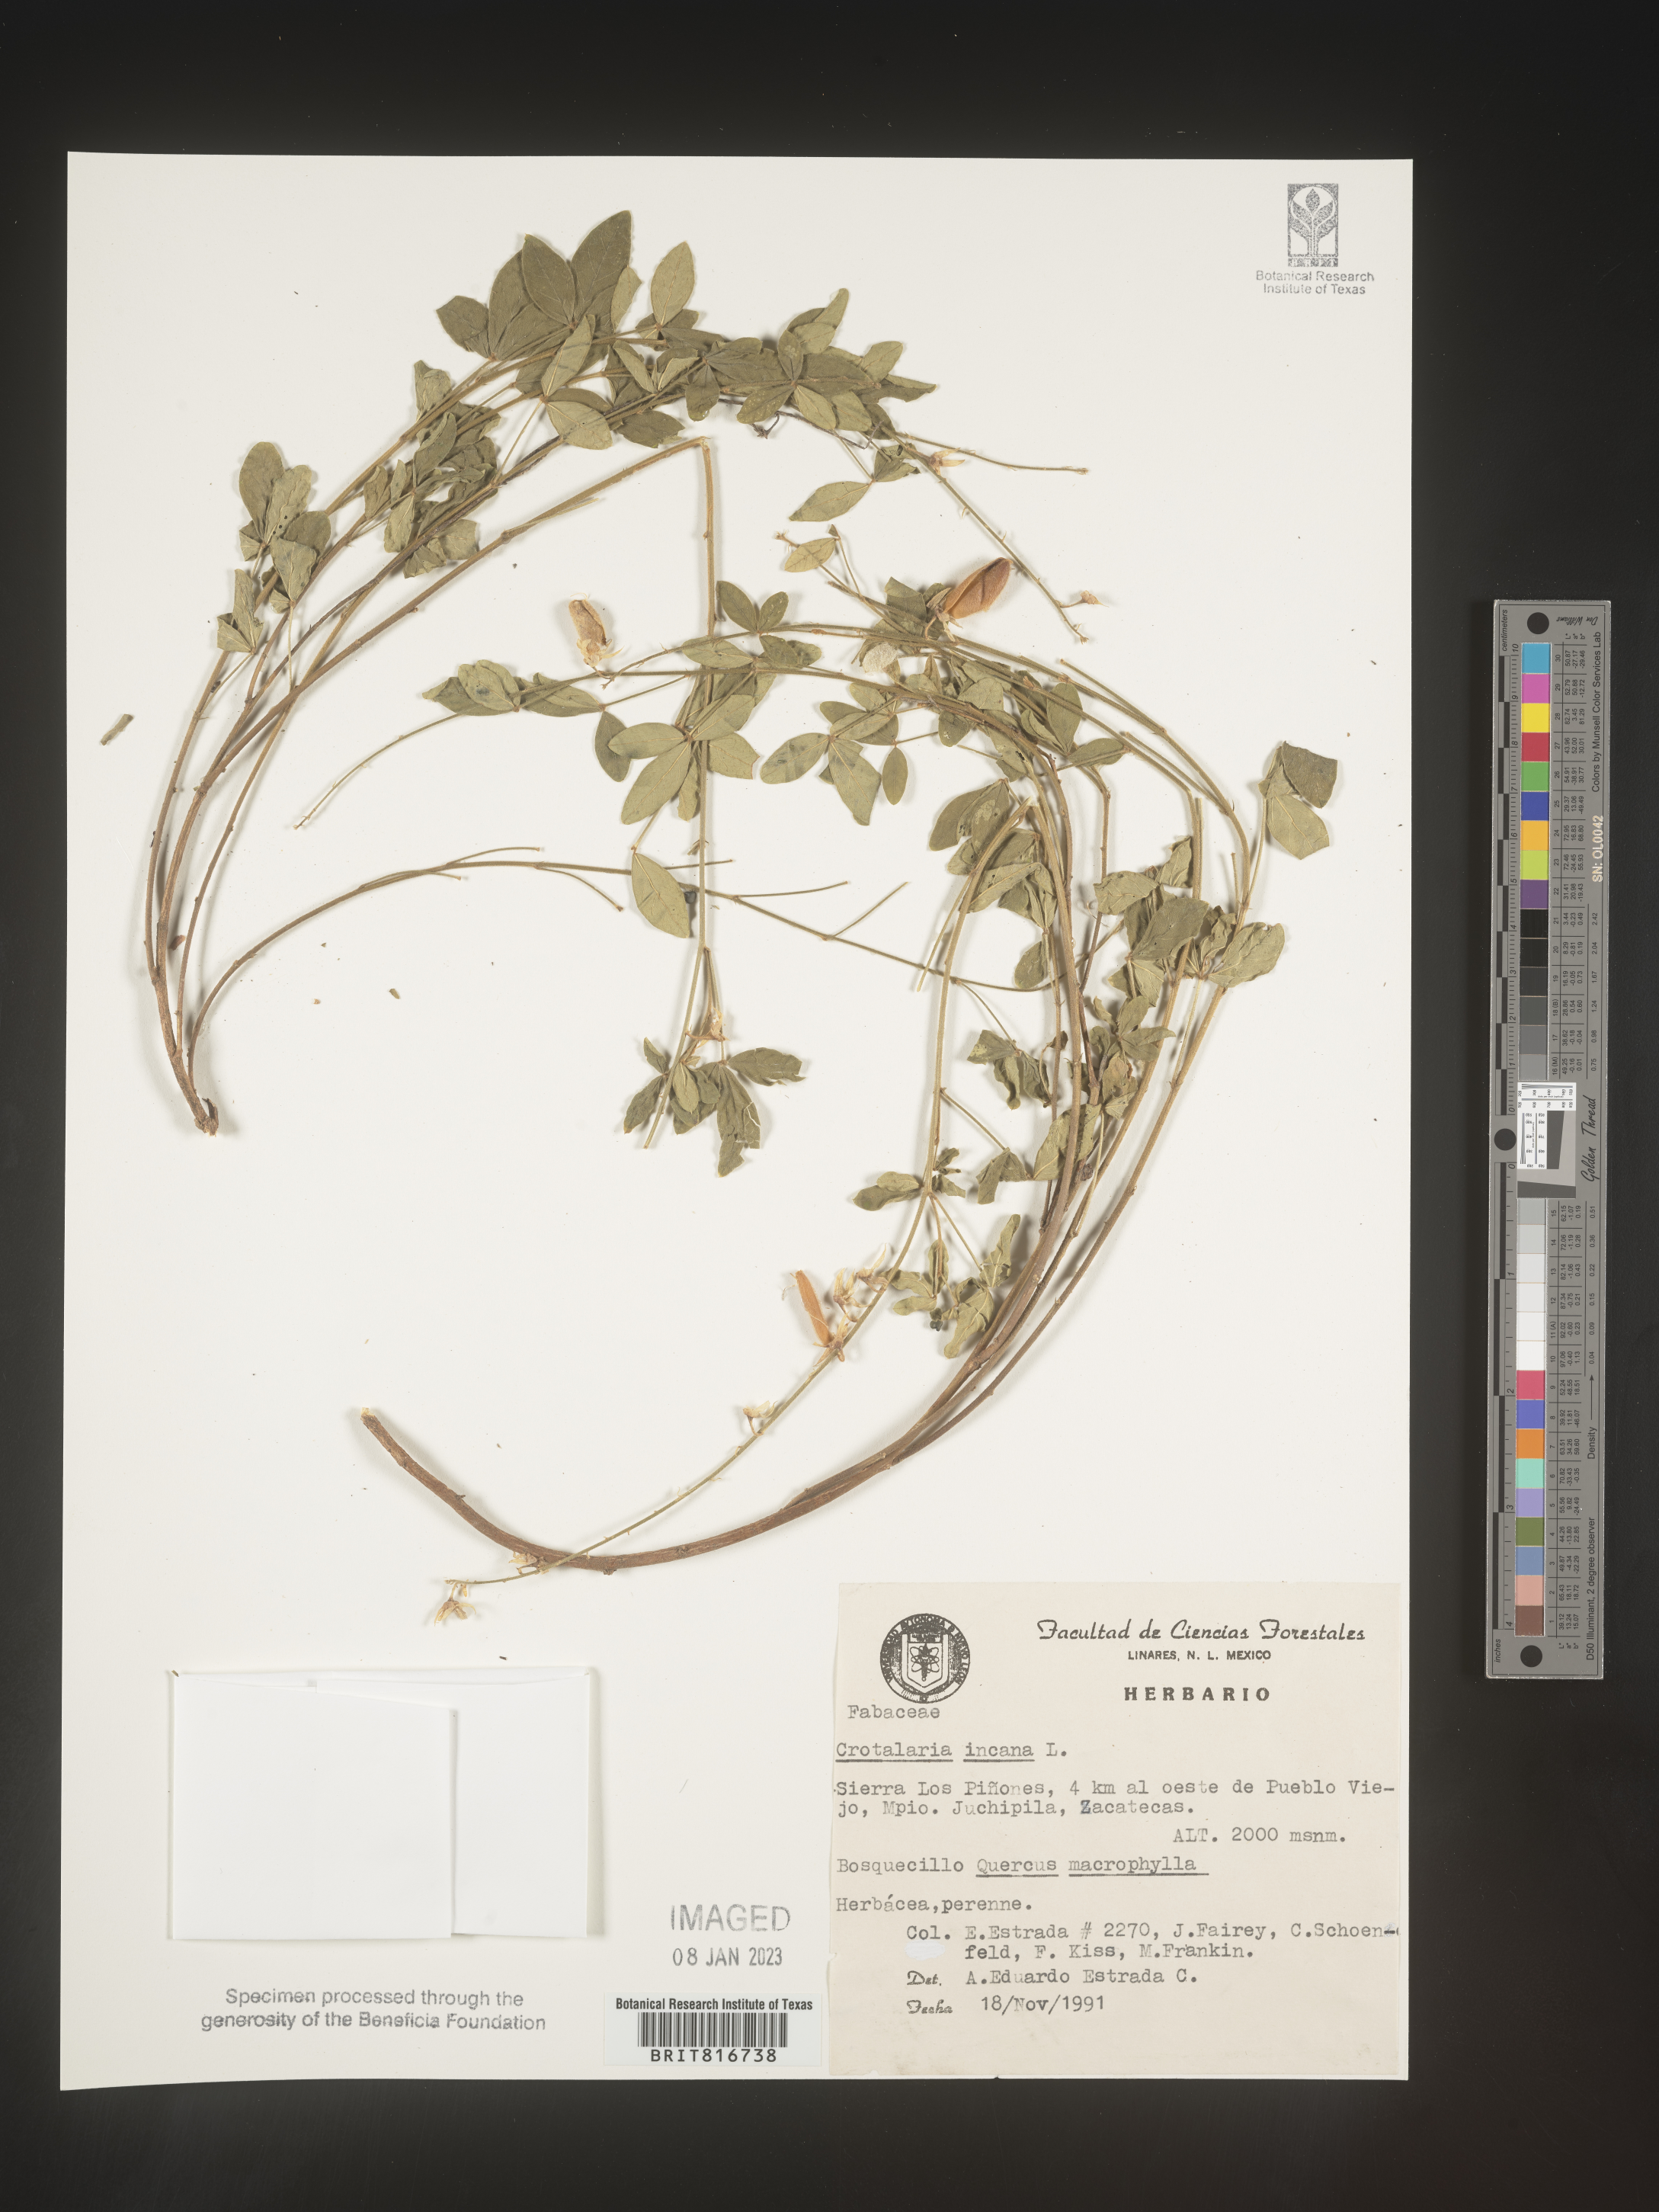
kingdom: Plantae
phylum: Tracheophyta
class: Magnoliopsida
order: Fabales
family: Fabaceae
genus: Crotalaria
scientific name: Crotalaria
